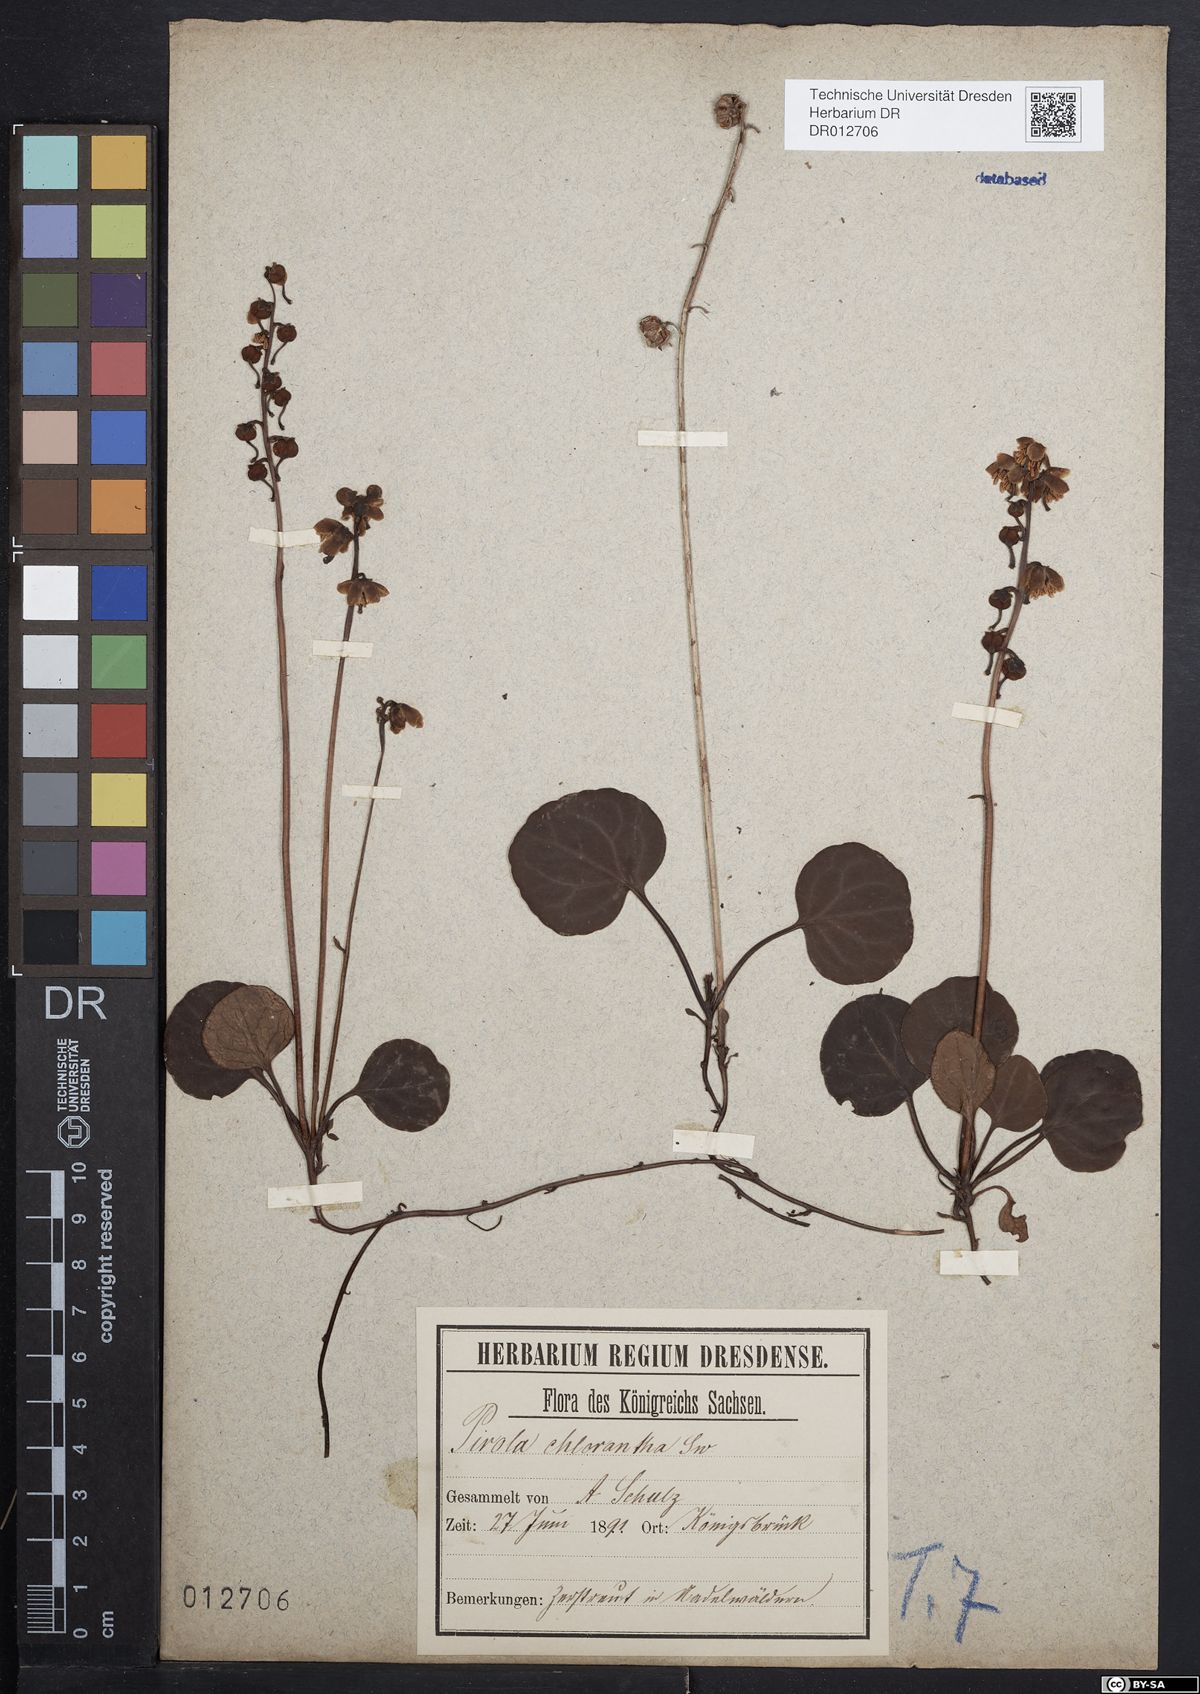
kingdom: Plantae
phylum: Tracheophyta
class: Magnoliopsida
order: Ericales
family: Ericaceae
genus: Pyrola
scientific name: Pyrola chlorantha
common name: Green wintergreen
